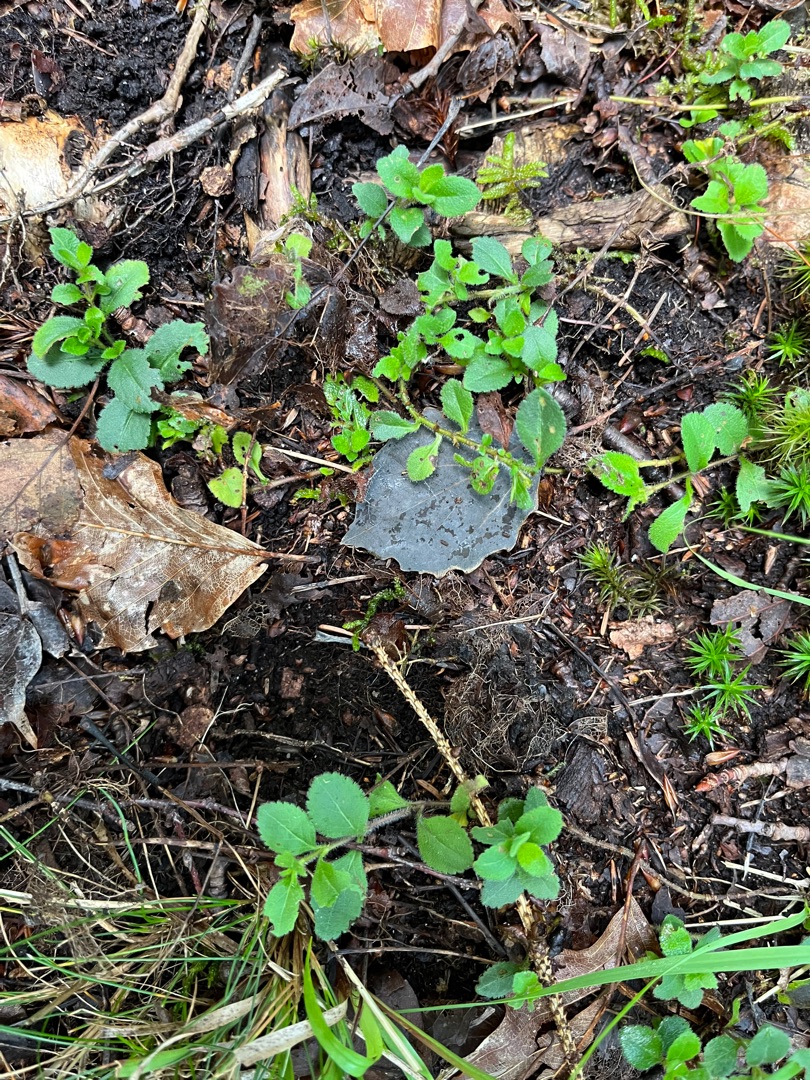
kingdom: Plantae
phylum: Tracheophyta
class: Magnoliopsida
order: Lamiales
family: Plantaginaceae
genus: Veronica
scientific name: Veronica officinalis
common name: Læge-ærenpris
